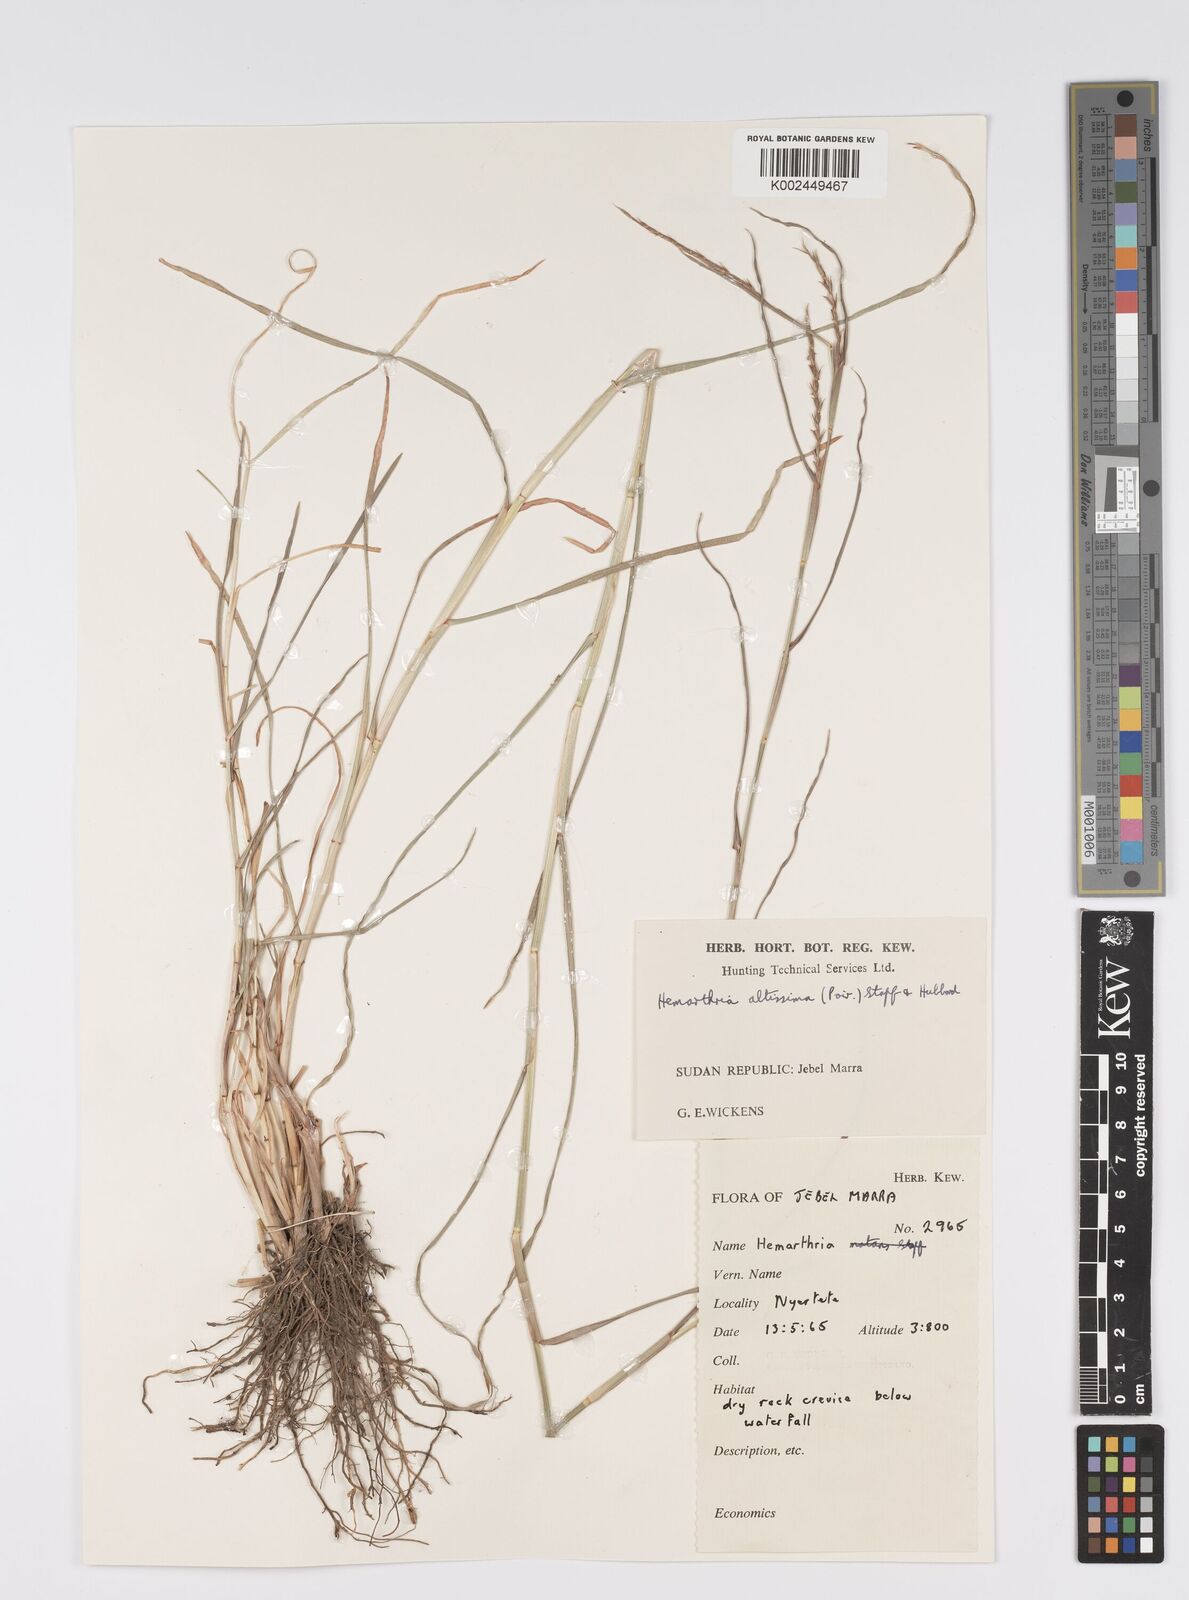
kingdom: Plantae
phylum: Tracheophyta
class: Liliopsida
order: Poales
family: Poaceae
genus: Hemarthria
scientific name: Hemarthria altissima
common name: African jointgrass
